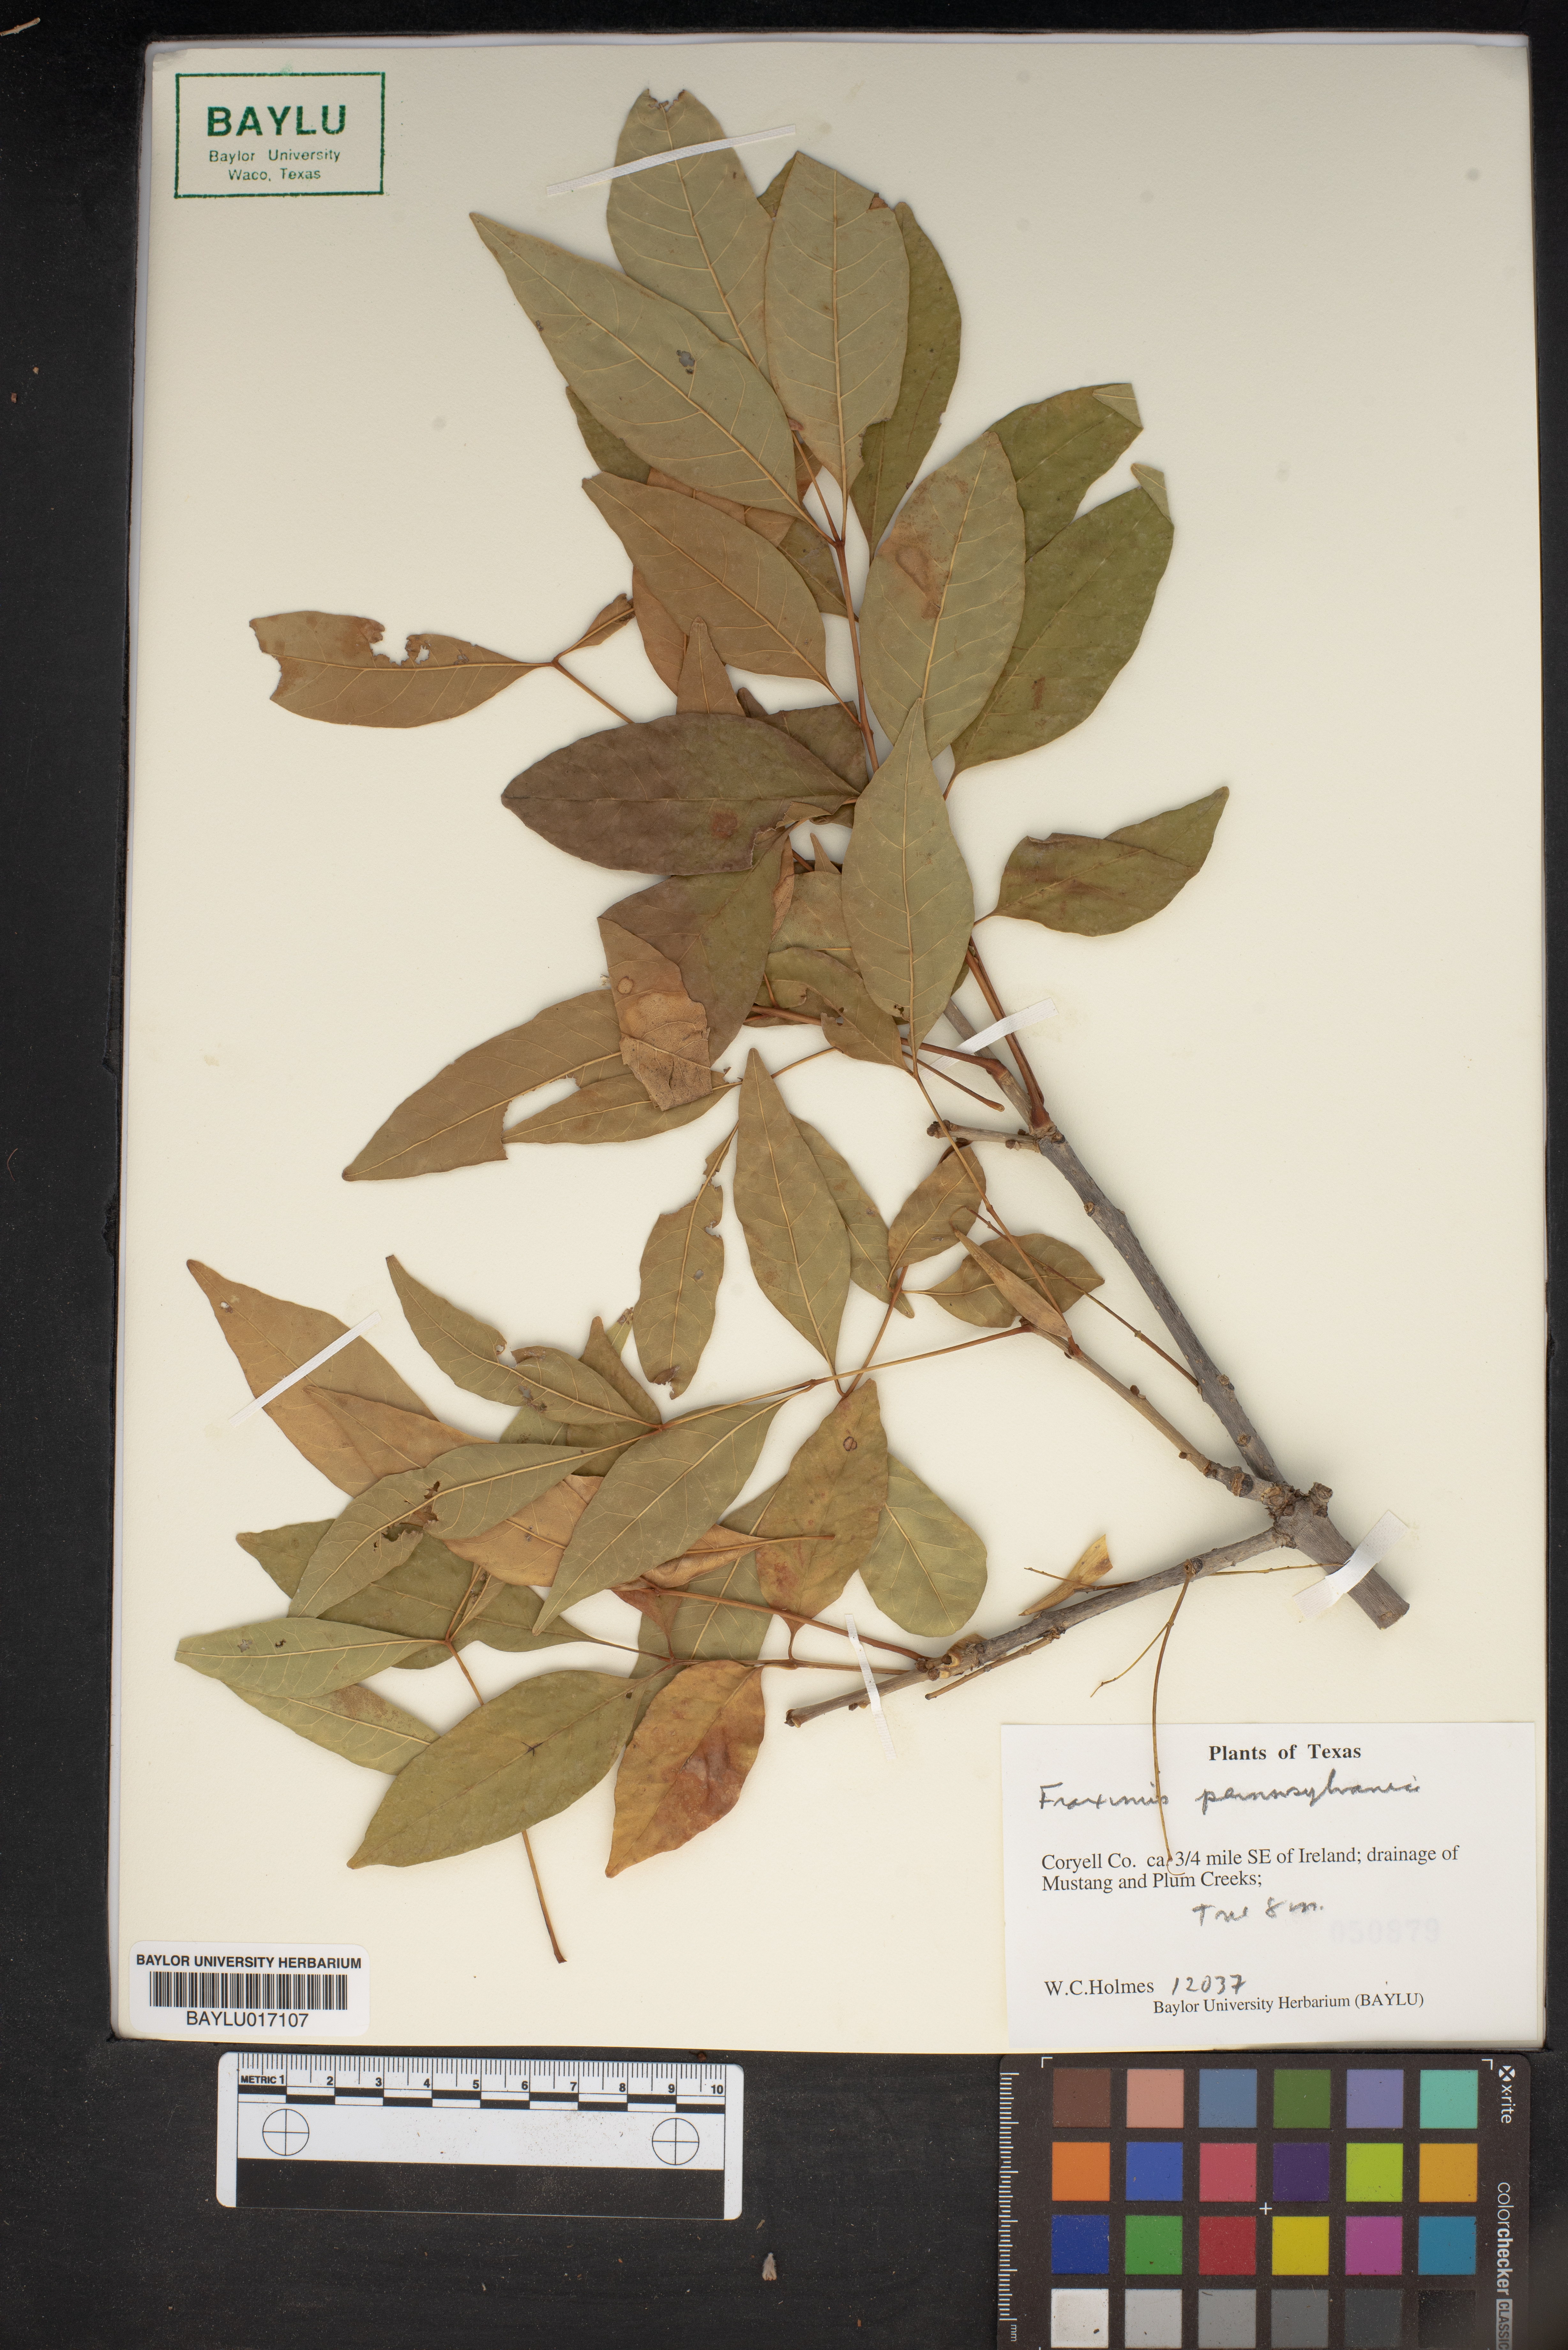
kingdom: Plantae
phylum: Tracheophyta
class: Magnoliopsida
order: Lamiales
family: Oleaceae
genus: Fraxinus
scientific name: Fraxinus pennsylvanica
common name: Green ash
